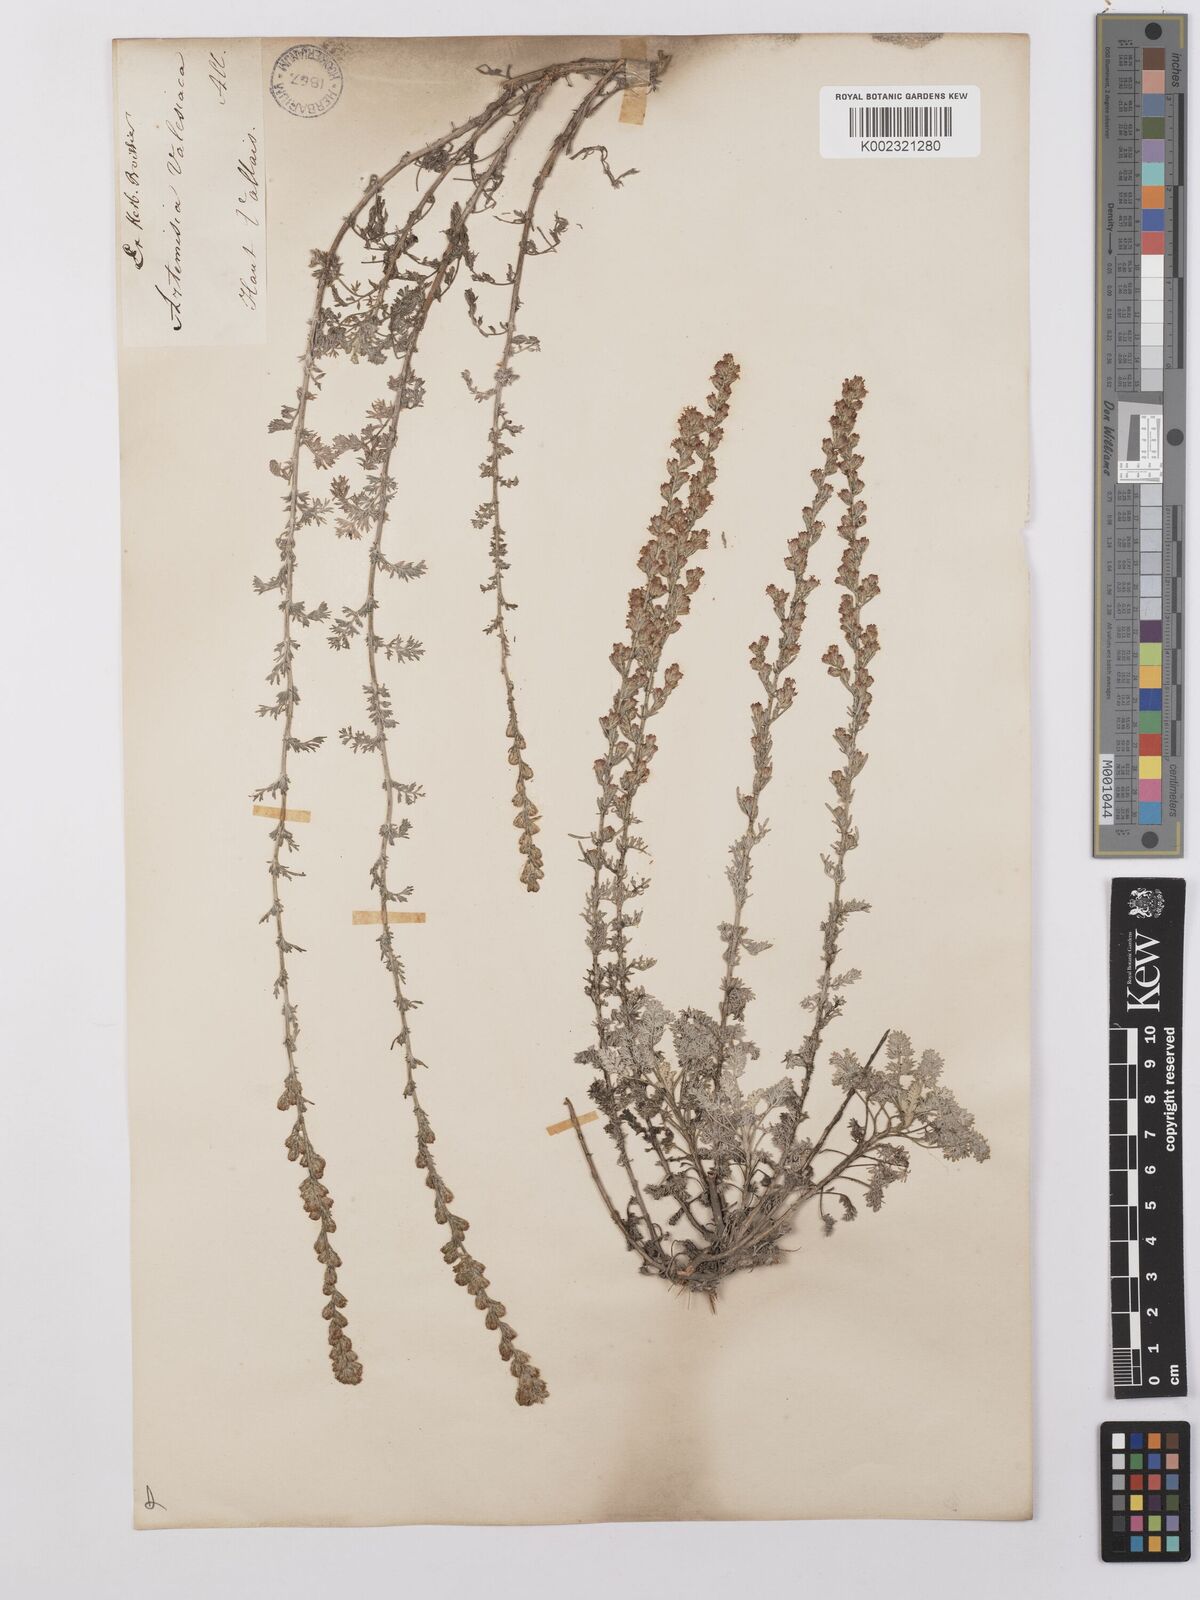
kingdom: Plantae
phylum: Tracheophyta
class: Magnoliopsida
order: Asterales
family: Asteraceae
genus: Artemisia
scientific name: Artemisia vallesiaca
